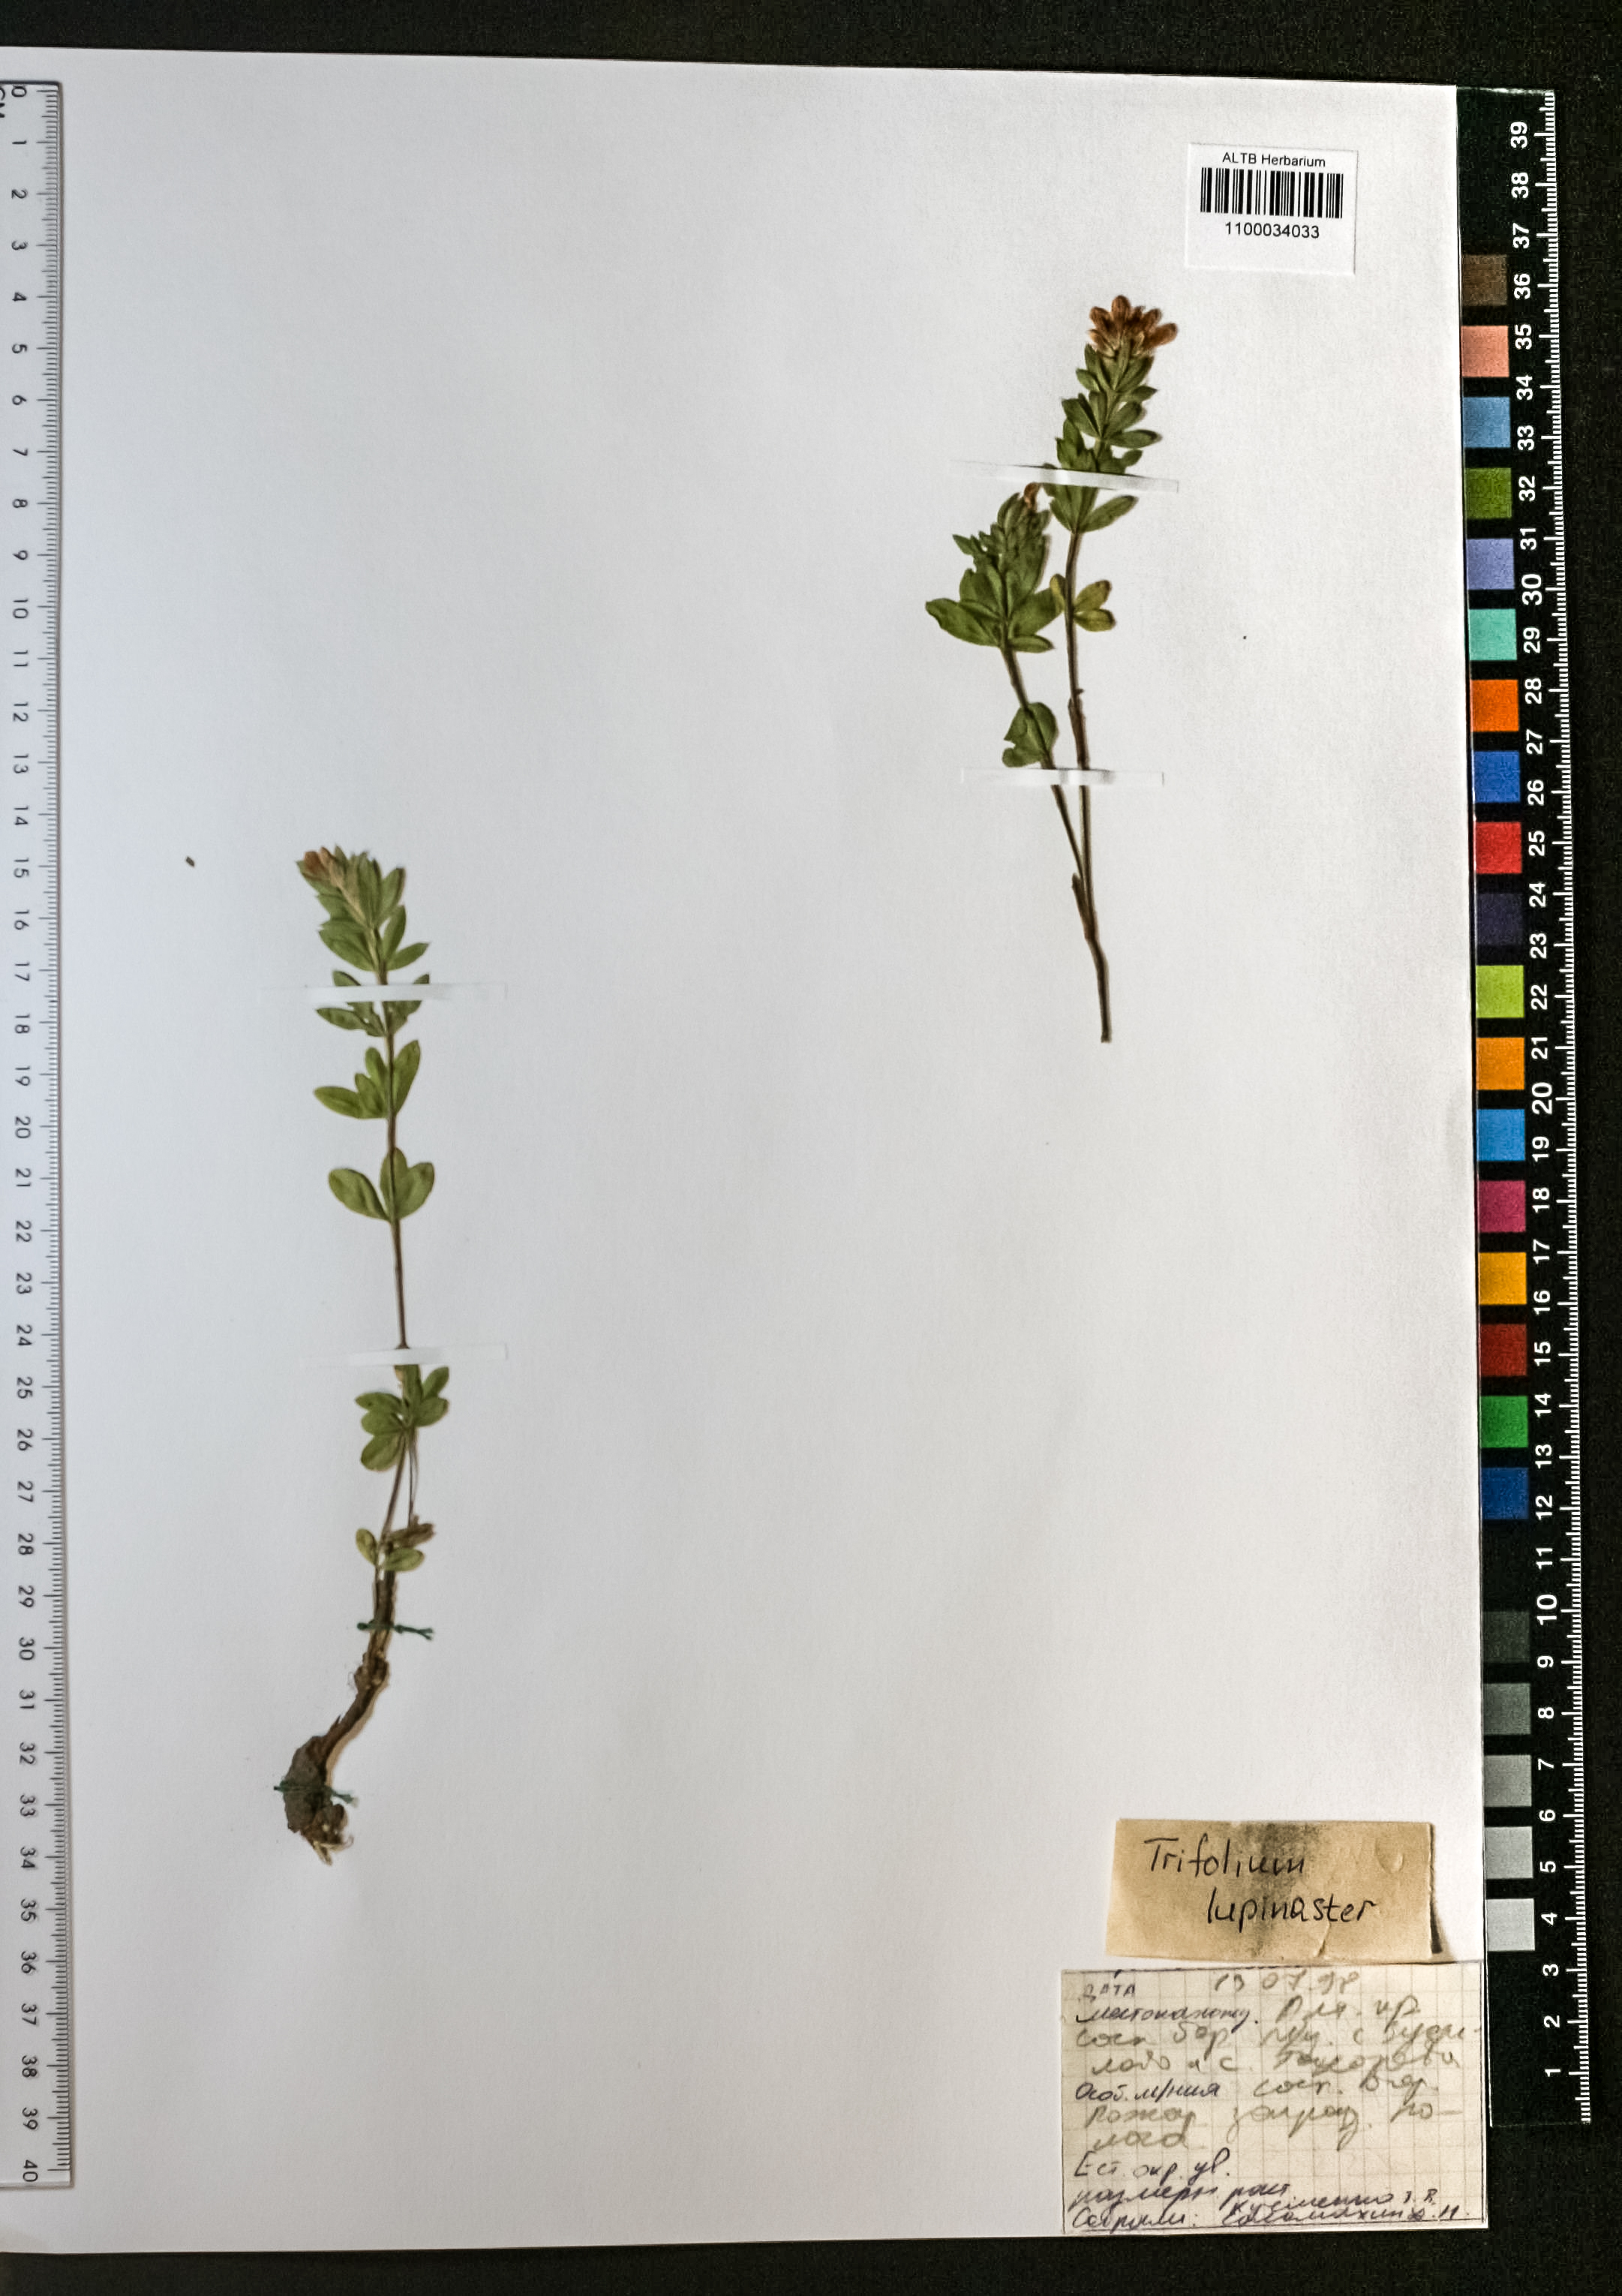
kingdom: Plantae
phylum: Tracheophyta
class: Magnoliopsida
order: Fabales
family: Fabaceae
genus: Trifolium
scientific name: Trifolium lupinaster
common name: Lupine clover
